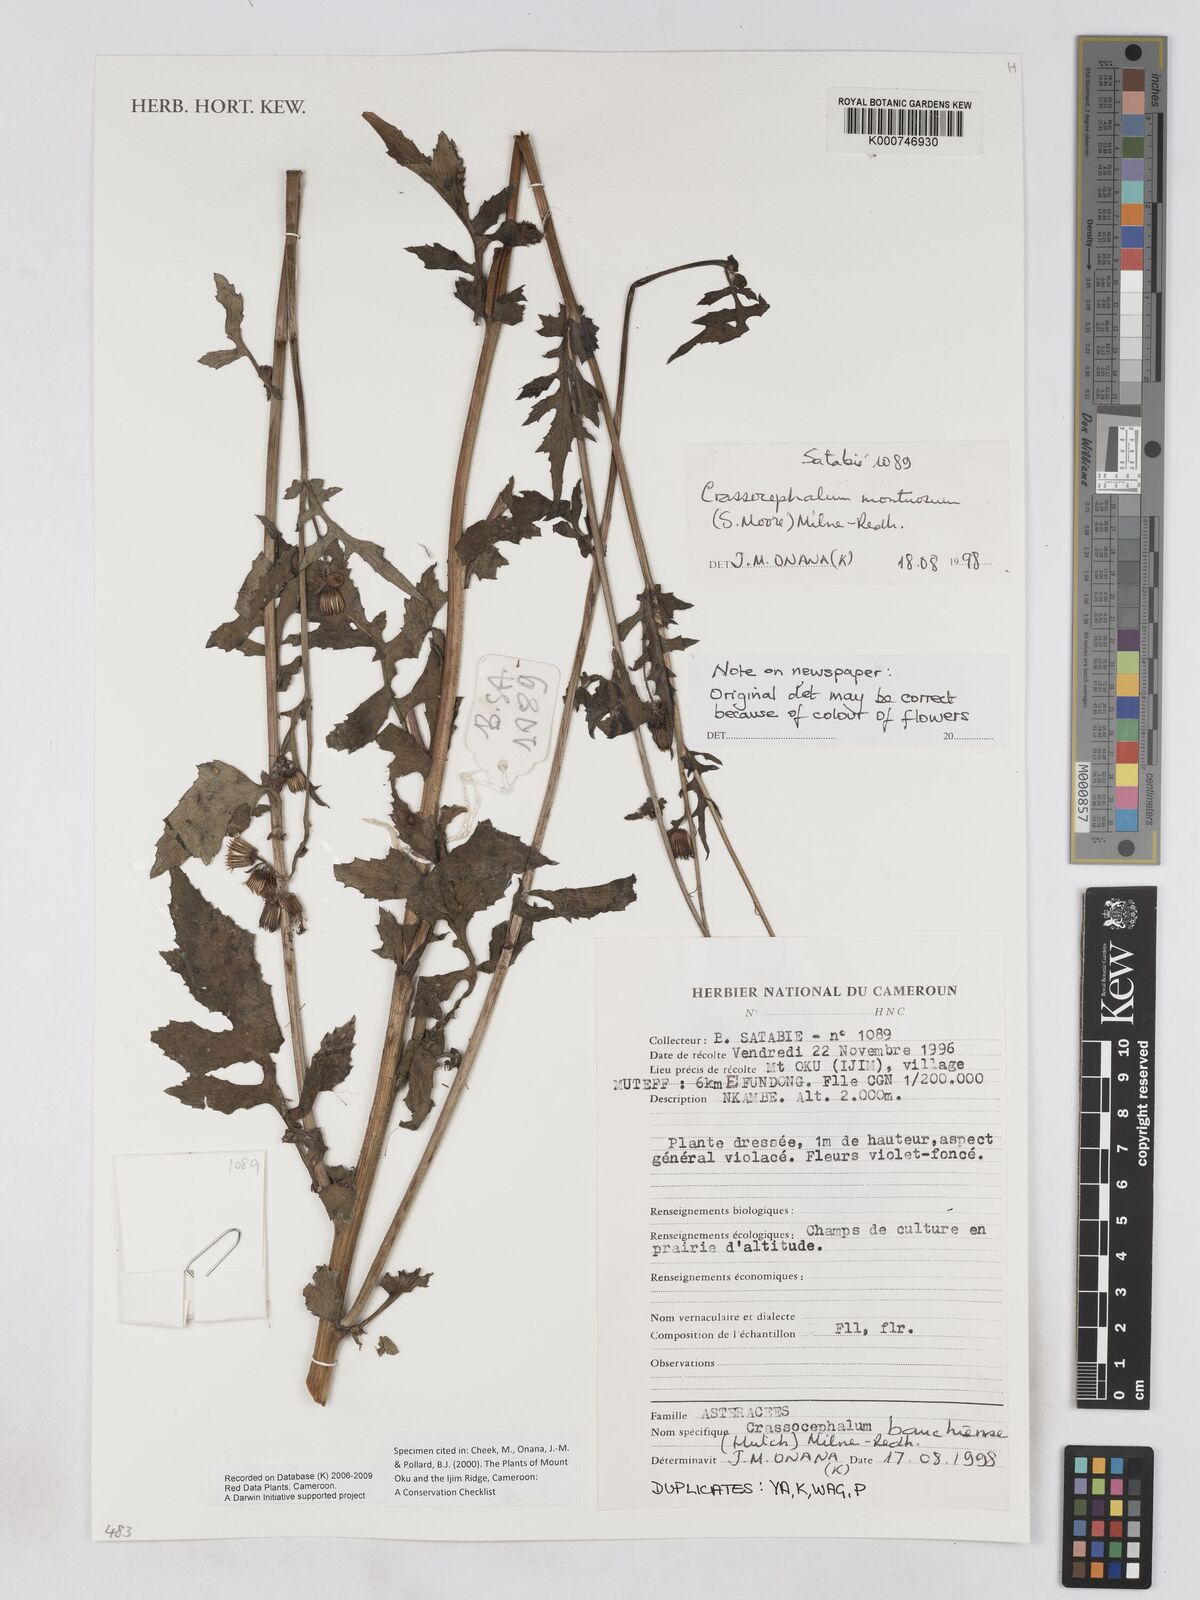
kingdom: Plantae
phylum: Tracheophyta
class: Magnoliopsida
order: Asterales
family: Asteraceae
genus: Crassocephalum
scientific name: Crassocephalum montuosum
